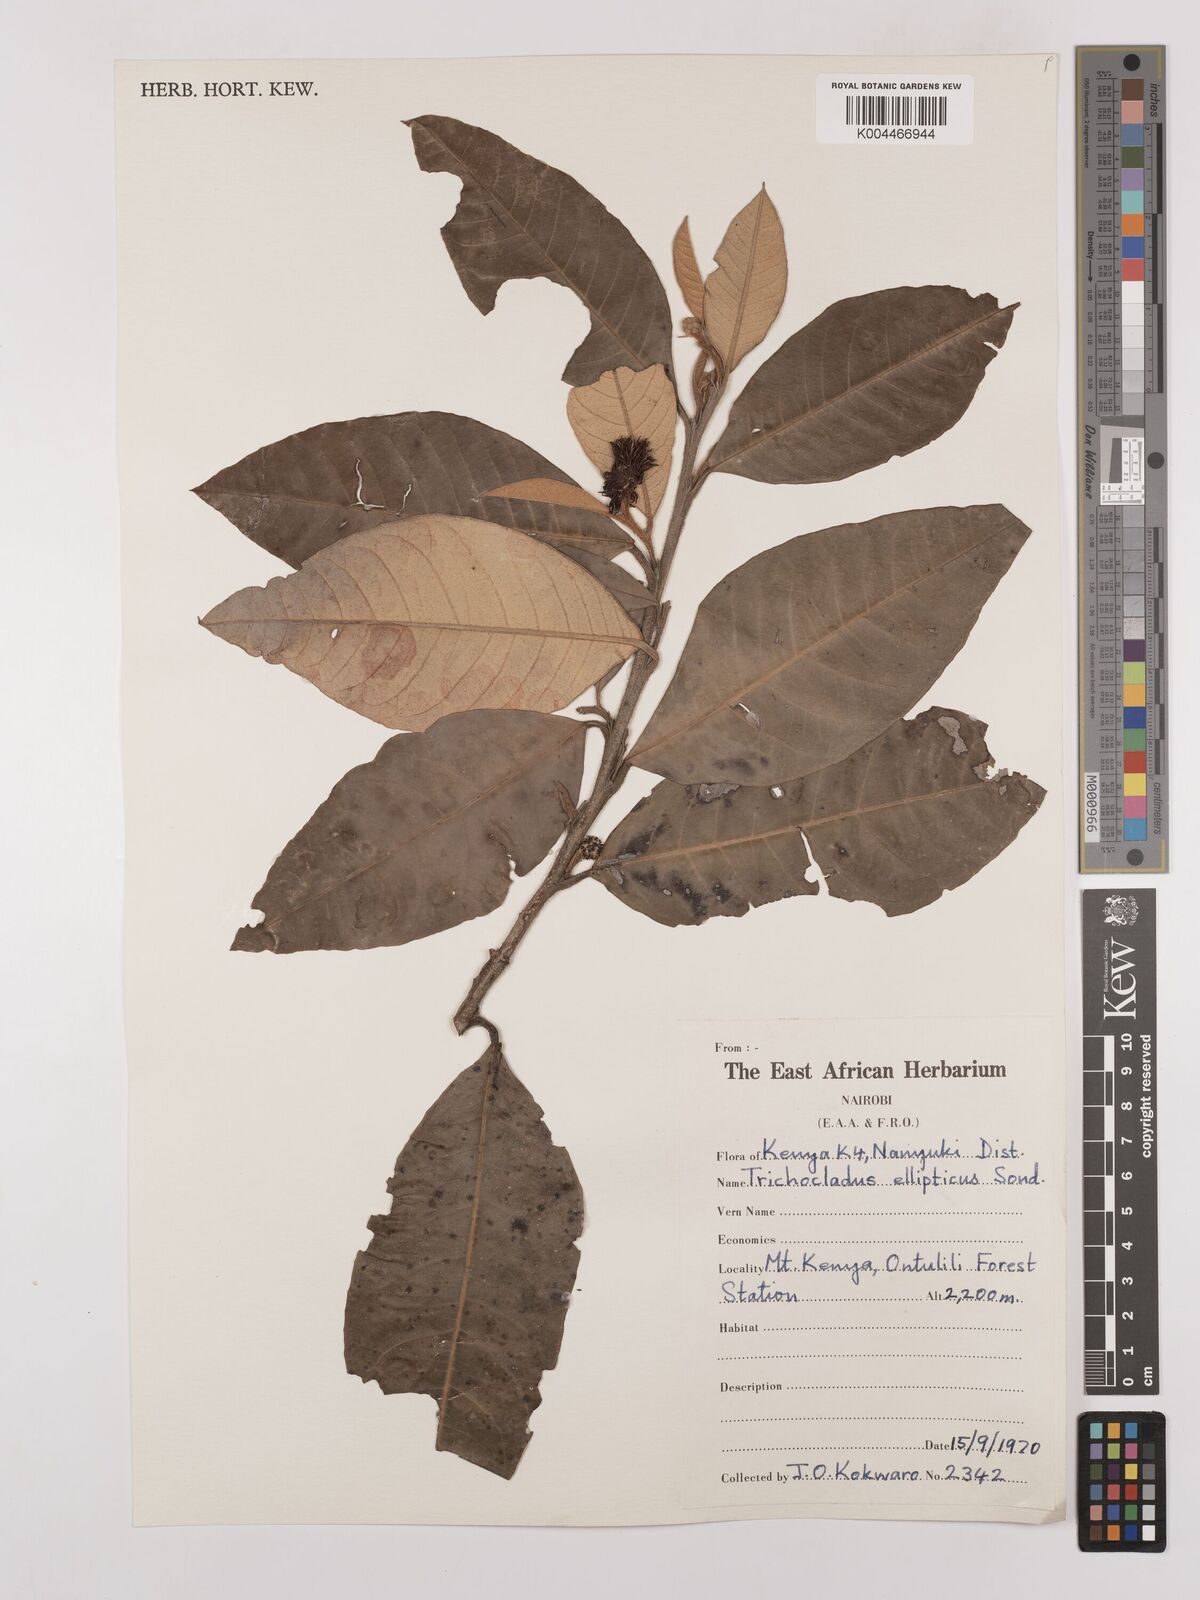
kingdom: Plantae
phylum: Tracheophyta
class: Magnoliopsida
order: Saxifragales
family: Hamamelidaceae
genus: Trichocladus
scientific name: Trichocladus ellipticus
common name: White witch-hazel
